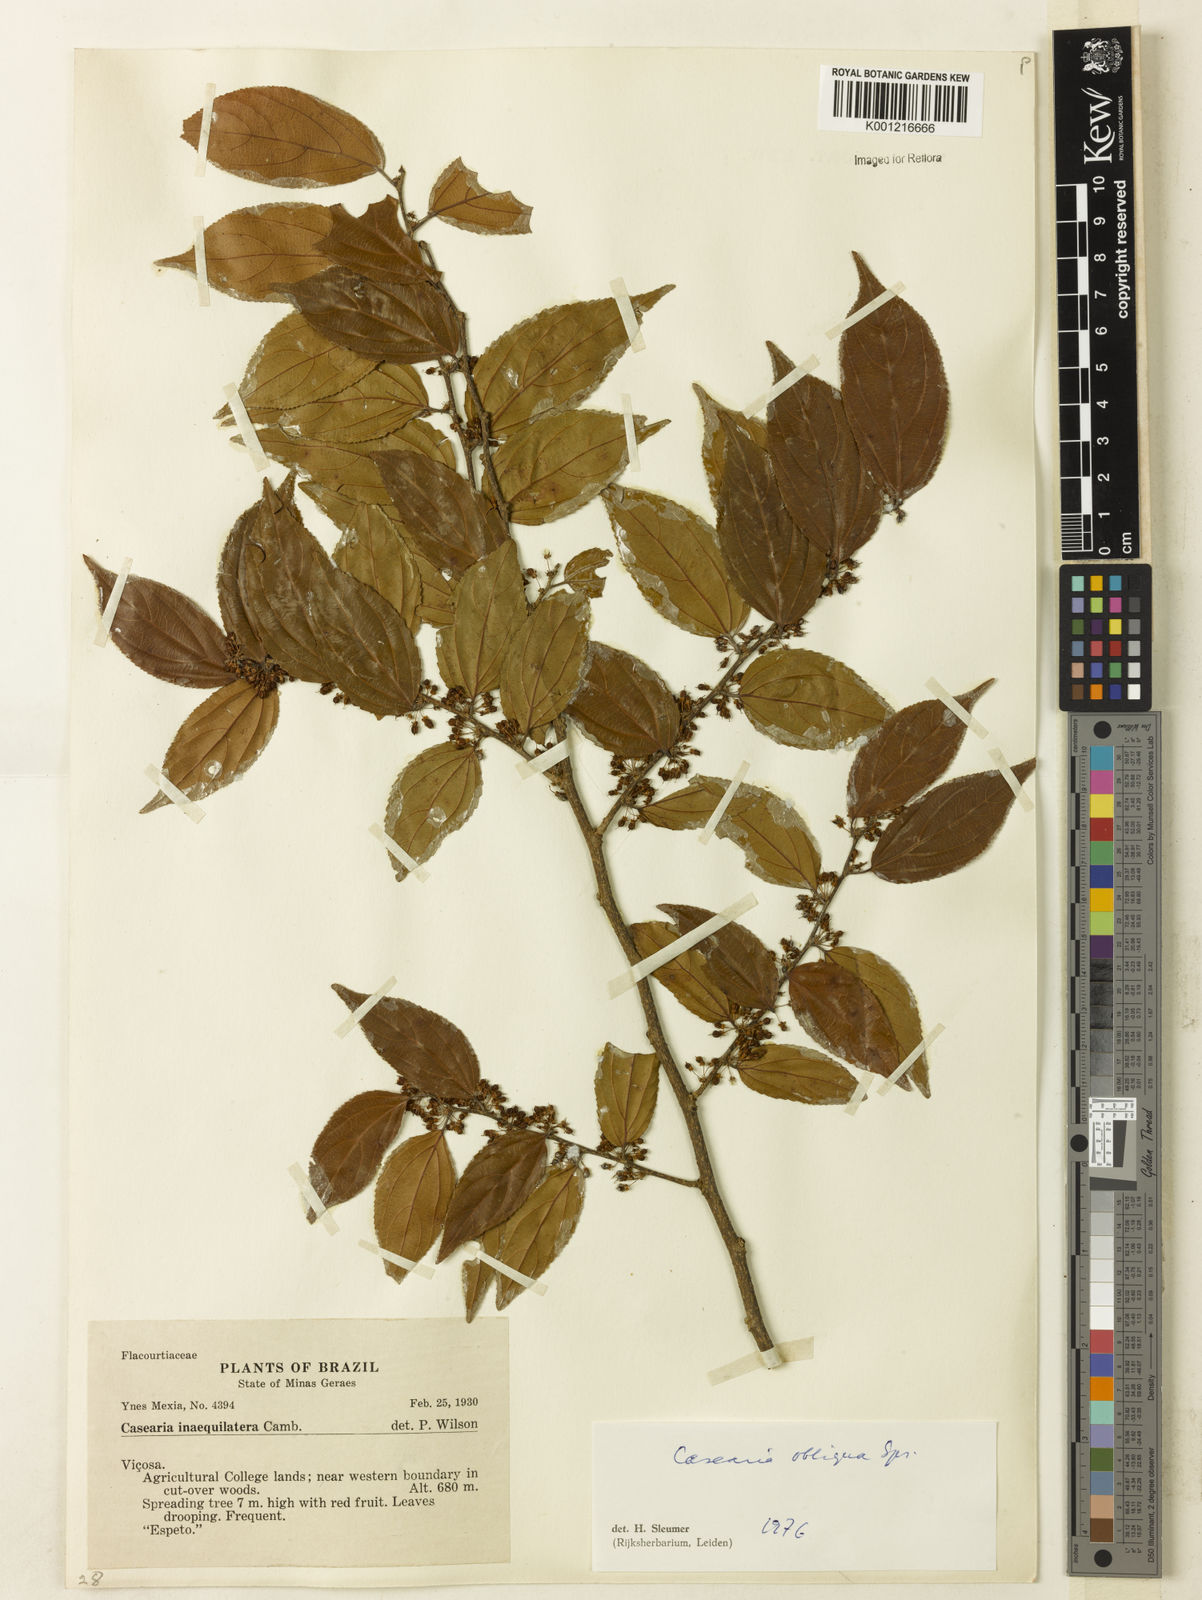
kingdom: Plantae
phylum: Tracheophyta
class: Magnoliopsida
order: Malpighiales
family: Salicaceae
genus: Casearia
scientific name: Casearia obliqua
